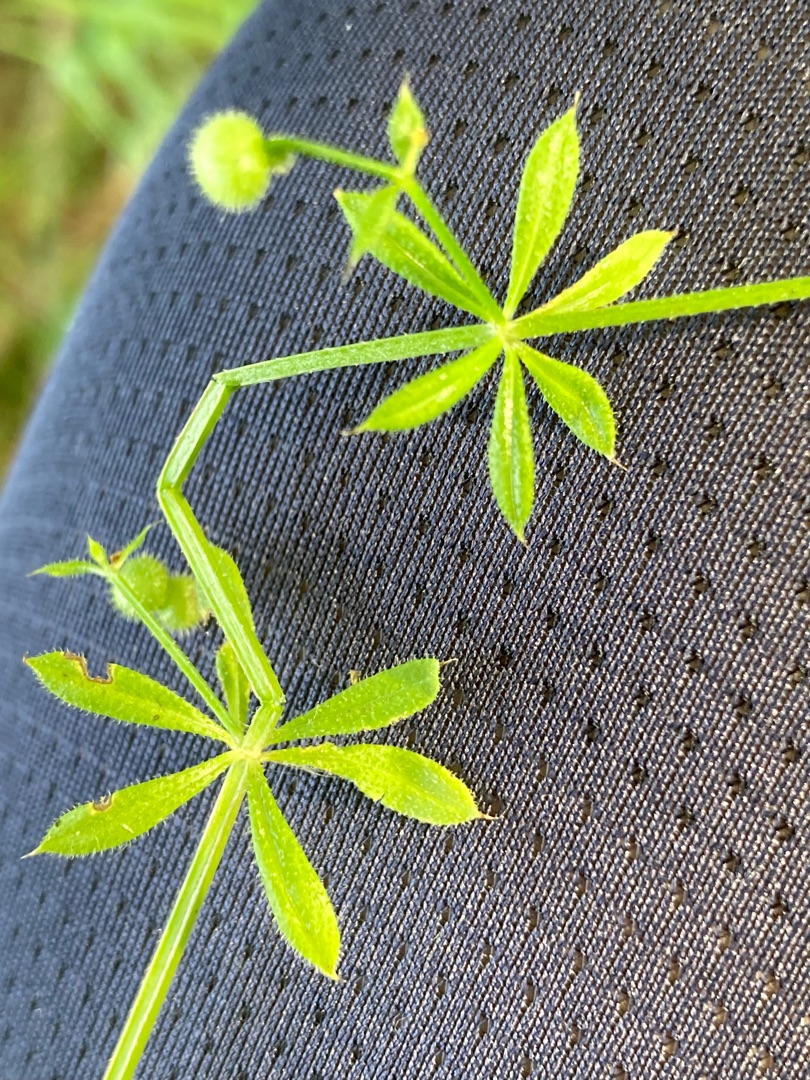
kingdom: Plantae
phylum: Tracheophyta
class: Magnoliopsida
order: Gentianales
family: Rubiaceae
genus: Galium
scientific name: Galium aparine
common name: Burre-snerre
